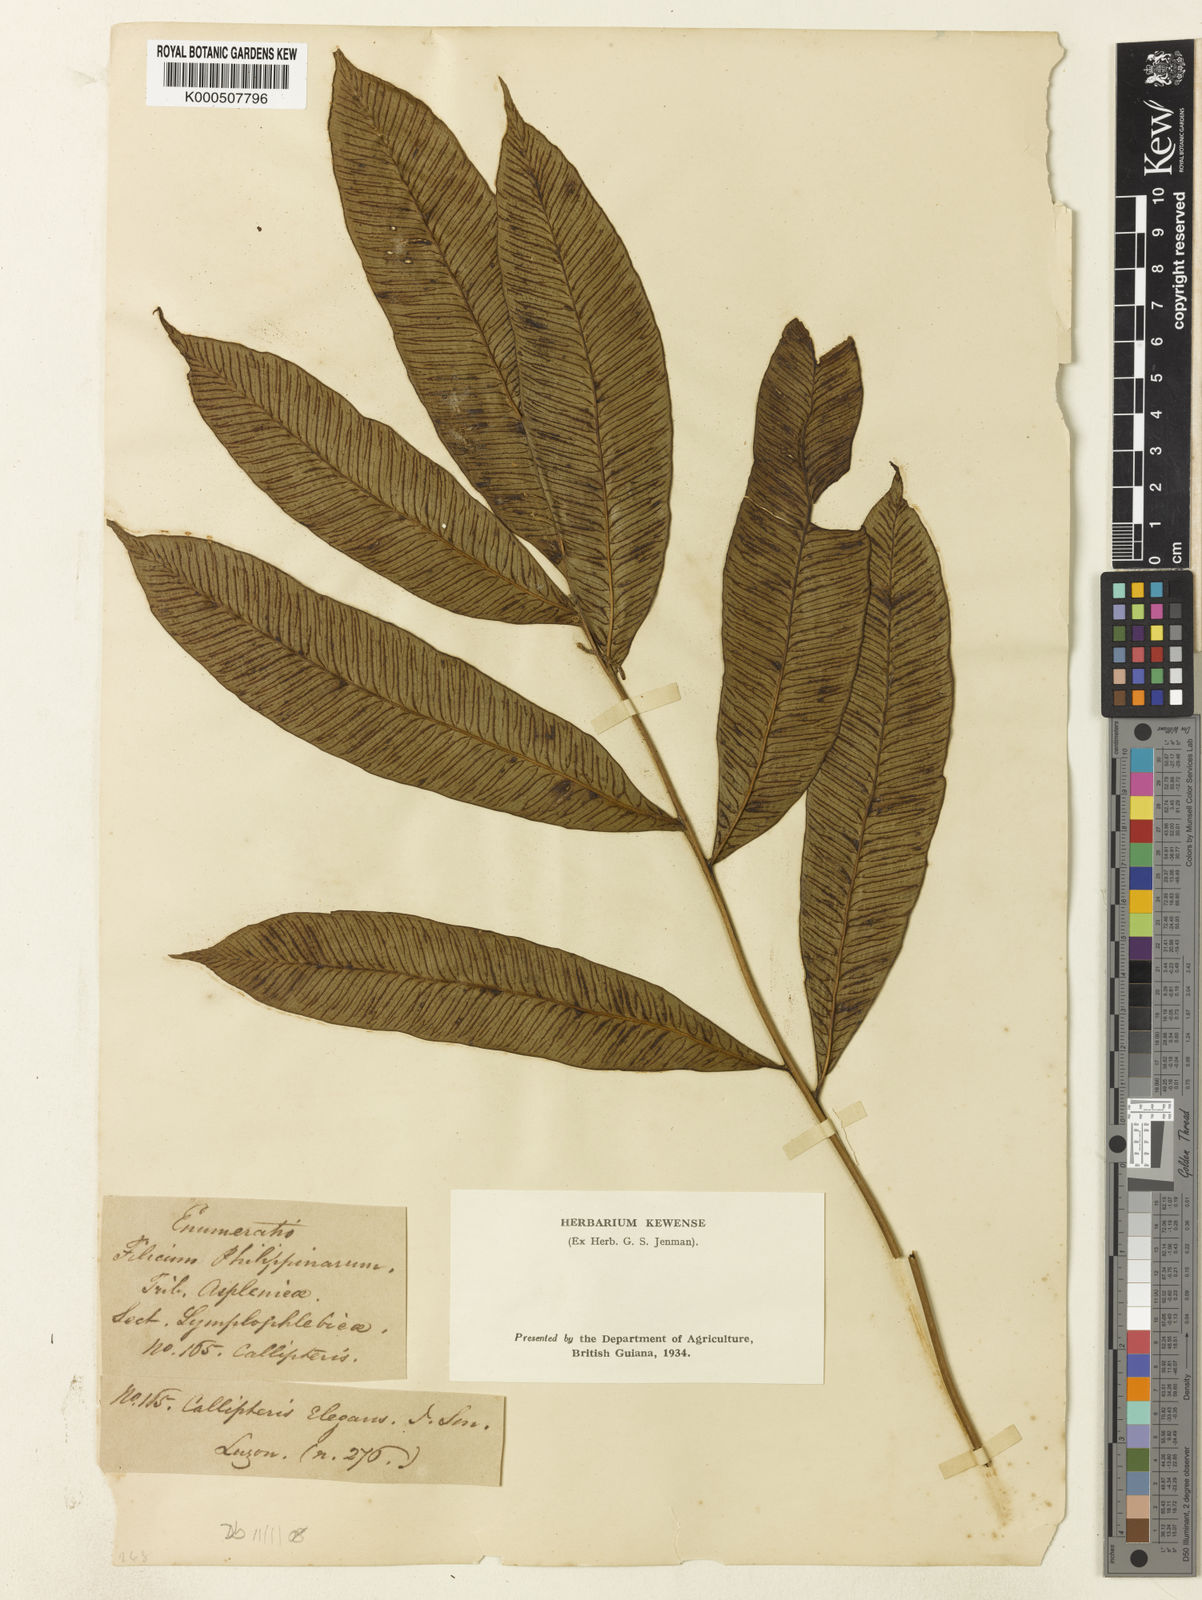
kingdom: Plantae
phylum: Tracheophyta
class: Polypodiopsida
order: Polypodiales
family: Athyriaceae
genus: Diplazium
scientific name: Diplazium
